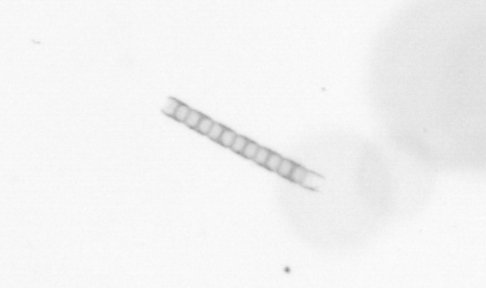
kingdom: Chromista
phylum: Ochrophyta
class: Bacillariophyceae
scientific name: Bacillariophyceae
